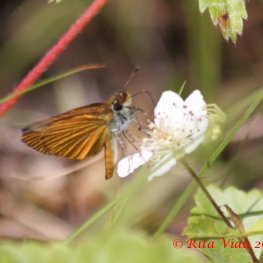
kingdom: Animalia
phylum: Arthropoda
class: Insecta
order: Lepidoptera
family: Hesperiidae
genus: Ancyloxypha
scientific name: Ancyloxypha numitor
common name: Least Skipper
